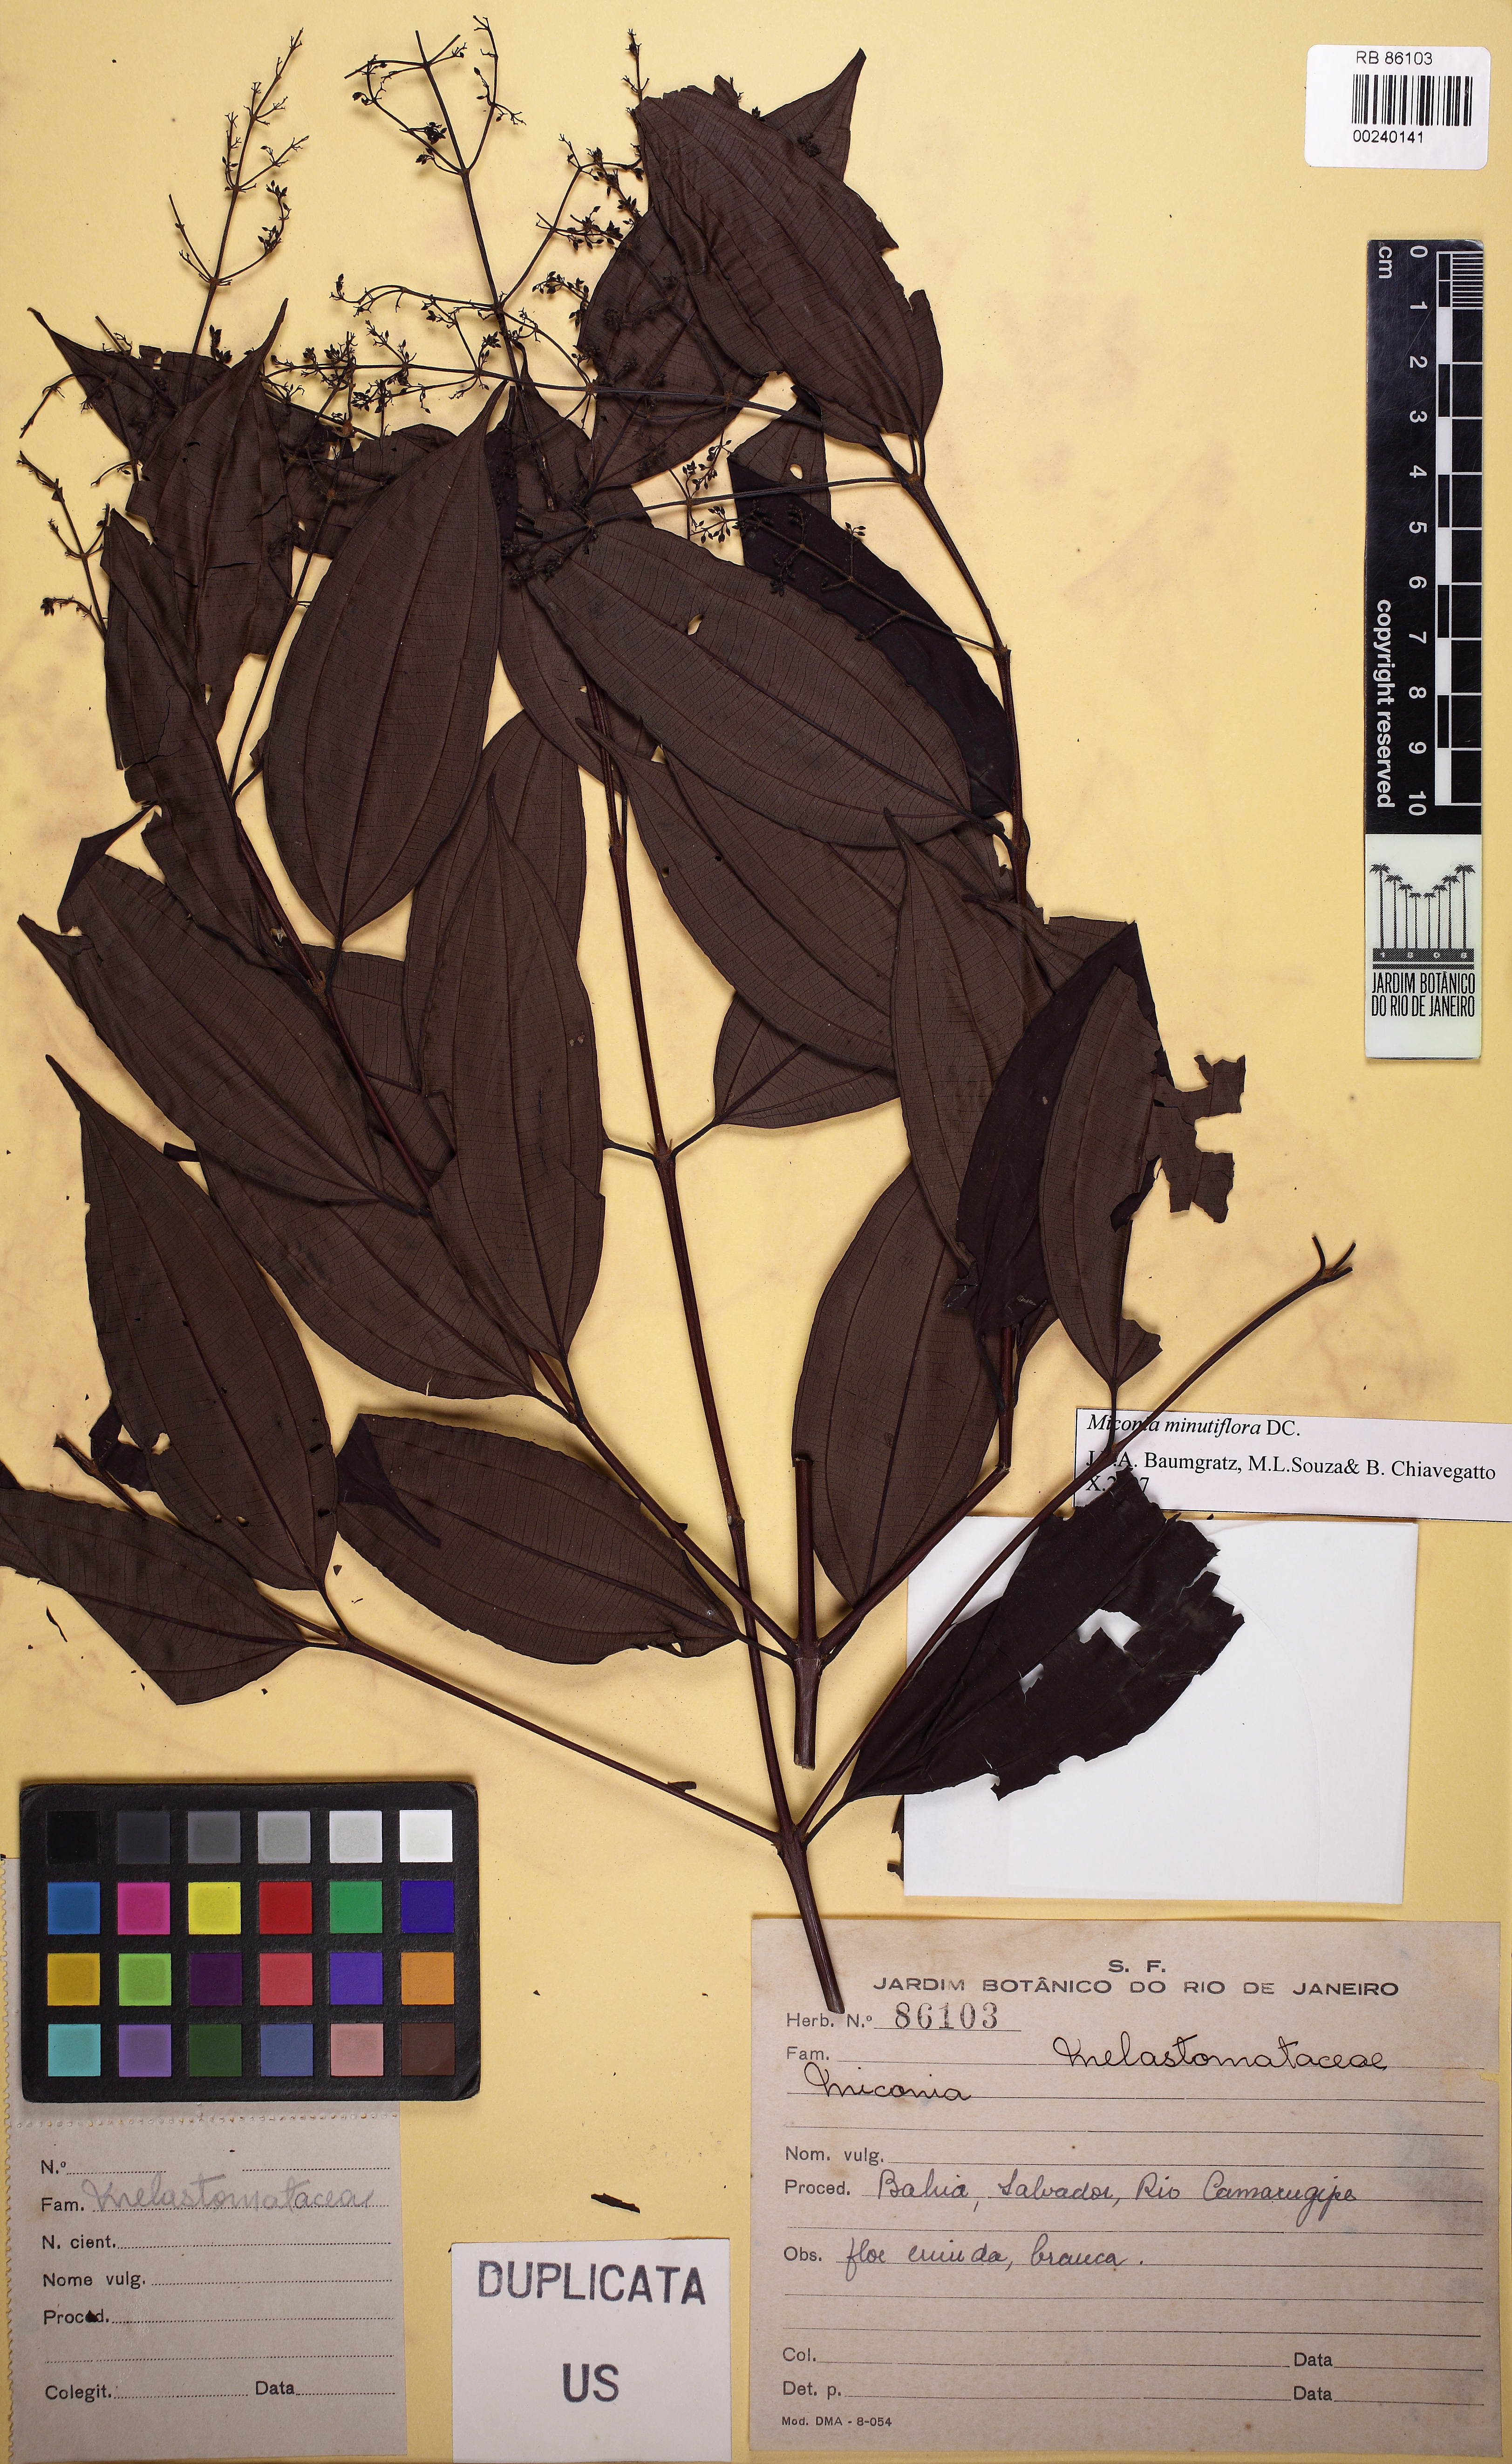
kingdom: Plantae
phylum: Tracheophyta
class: Magnoliopsida
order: Myrtales
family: Melastomataceae
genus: Miconia
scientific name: Miconia minutiflora
